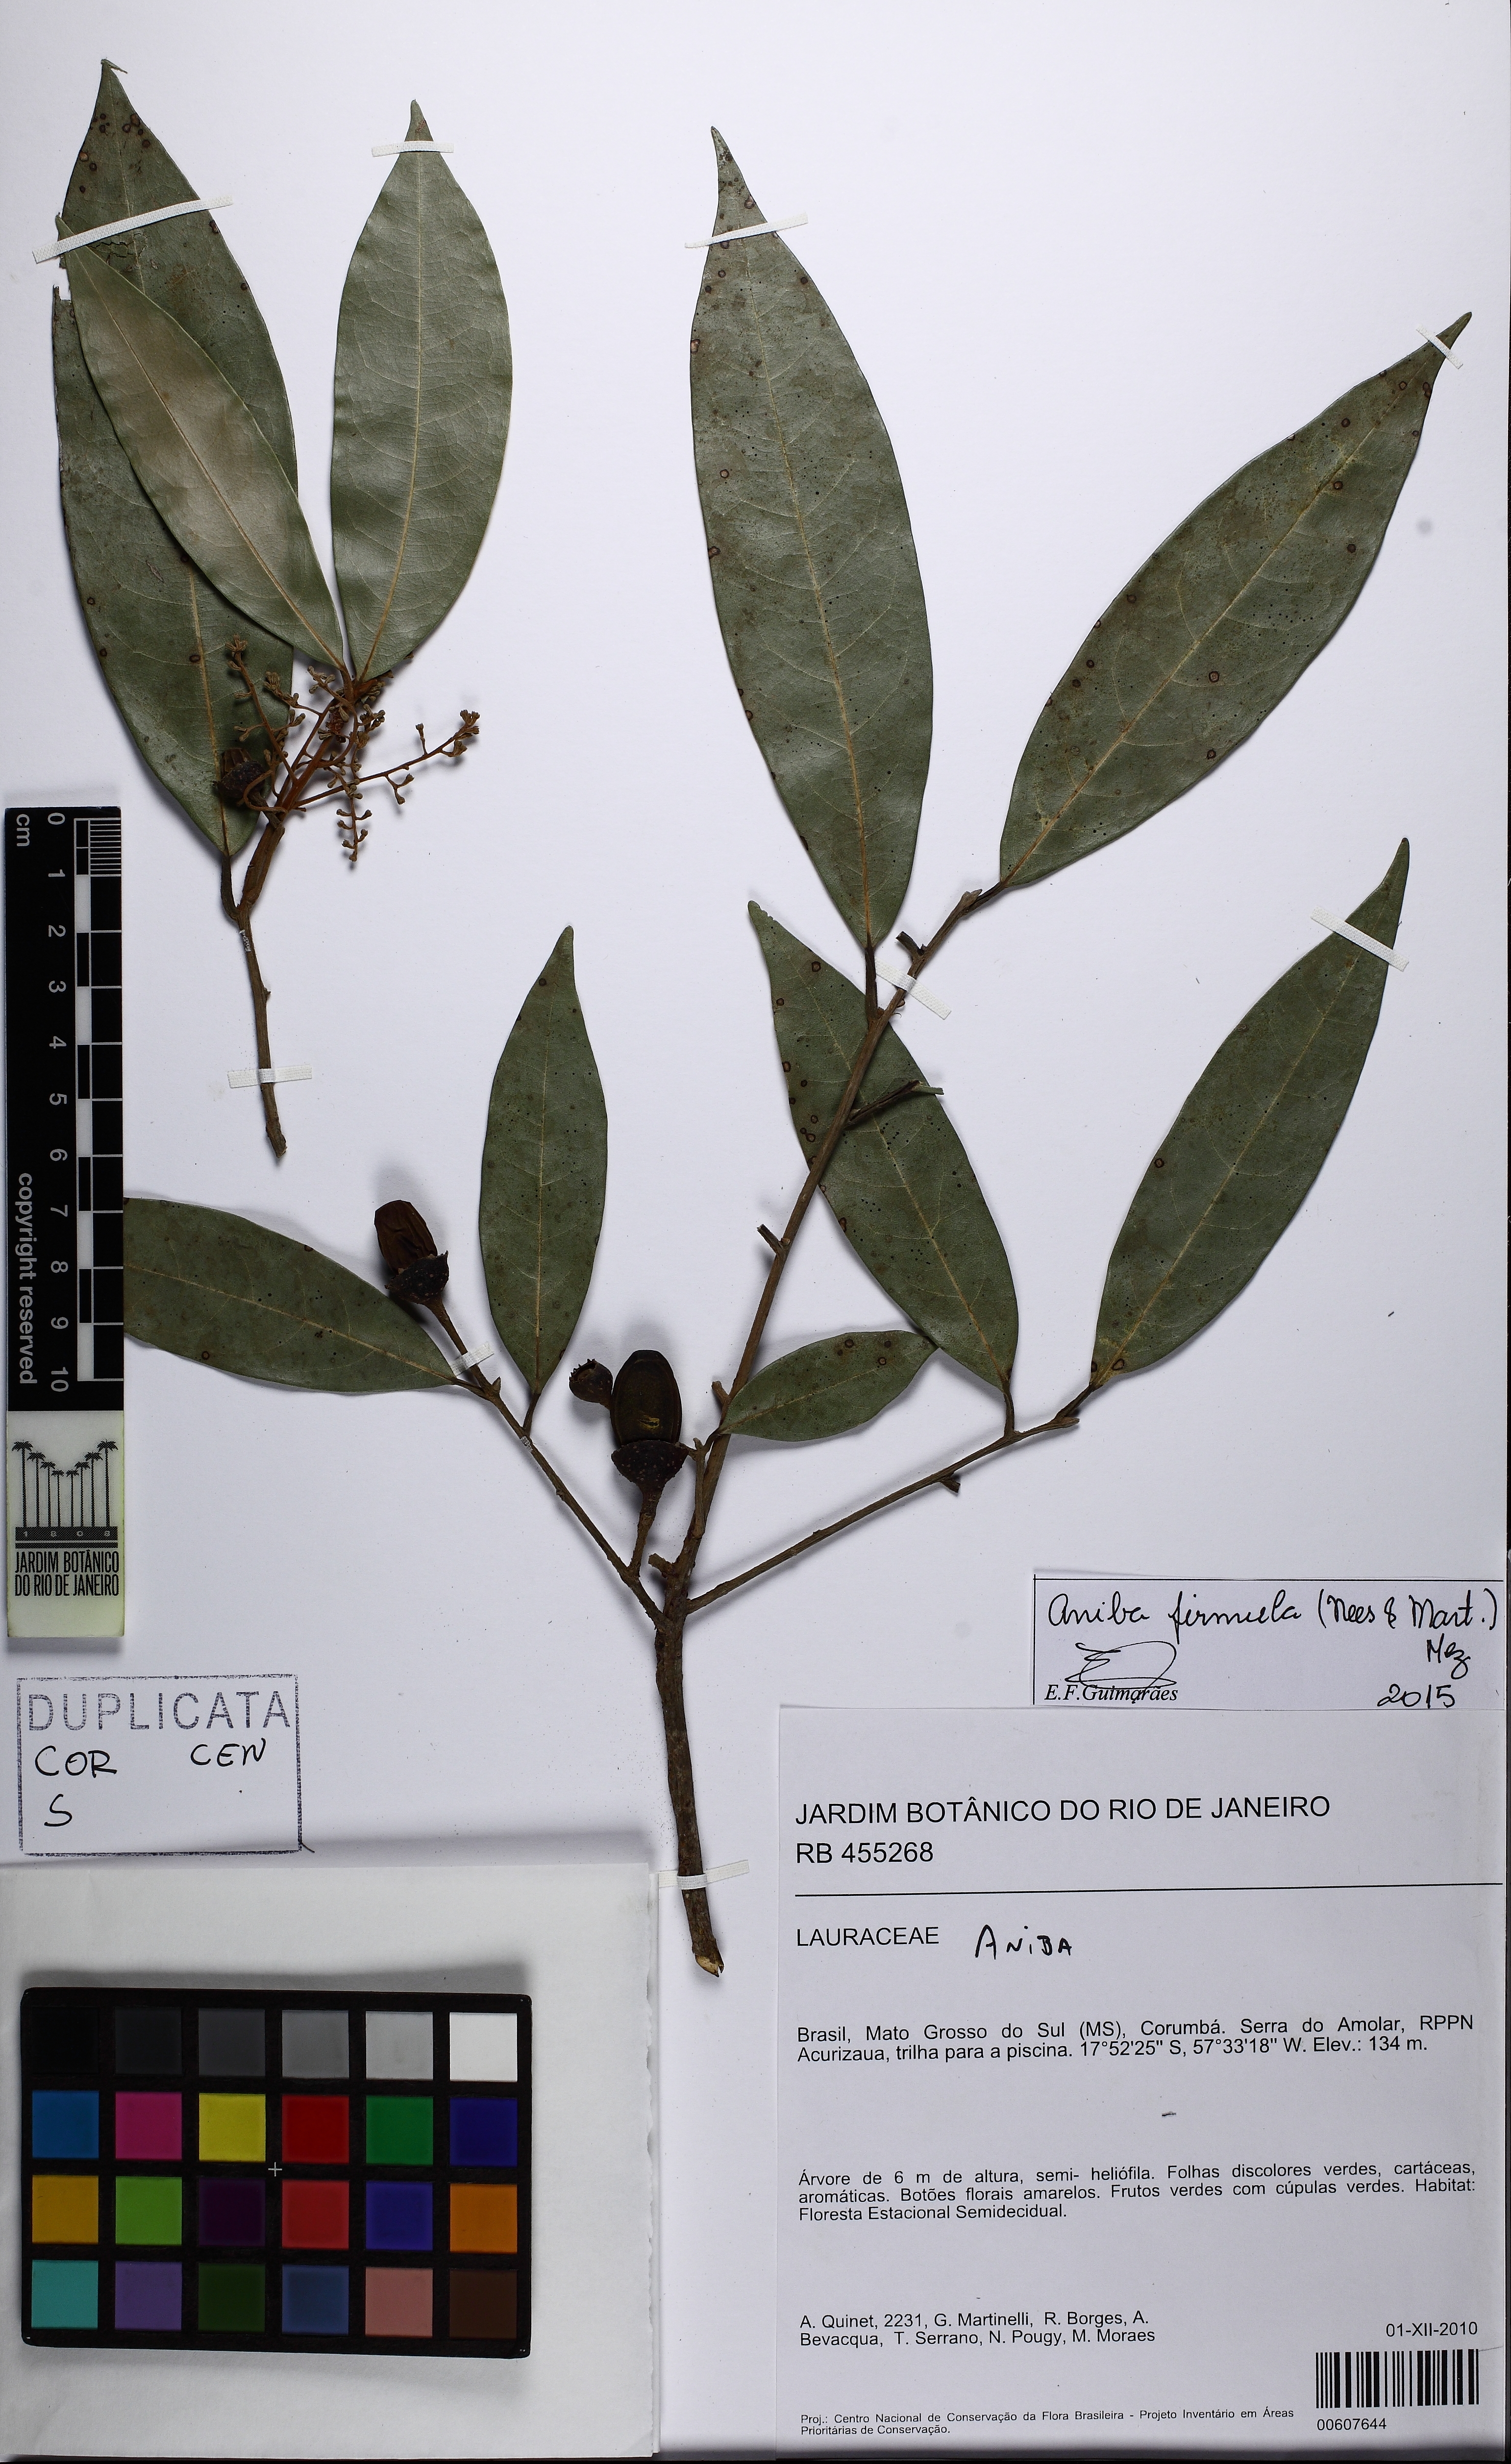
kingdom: Plantae
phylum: Tracheophyta
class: Magnoliopsida
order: Laurales
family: Lauraceae
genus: Aniba
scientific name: Aniba firmula
